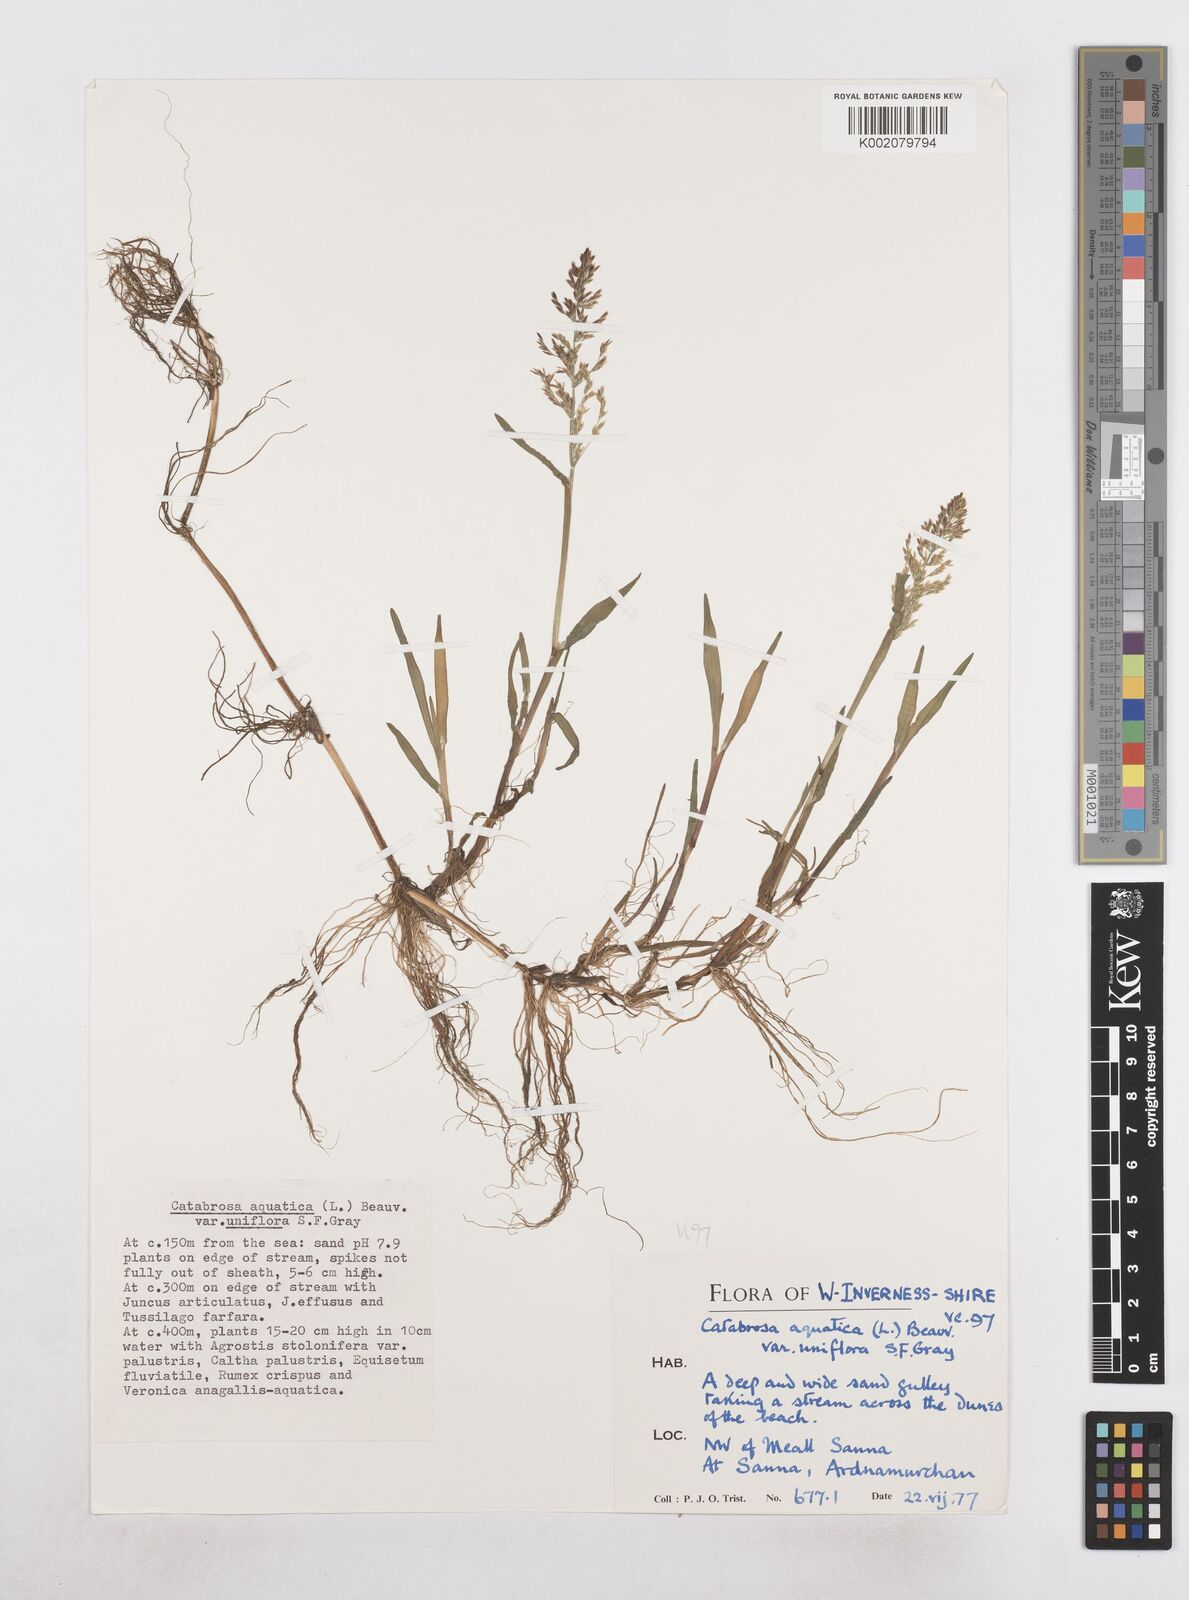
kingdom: Plantae
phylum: Tracheophyta
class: Liliopsida
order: Poales
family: Poaceae
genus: Catabrosa
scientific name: Catabrosa aquatica
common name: Whorl-grass
